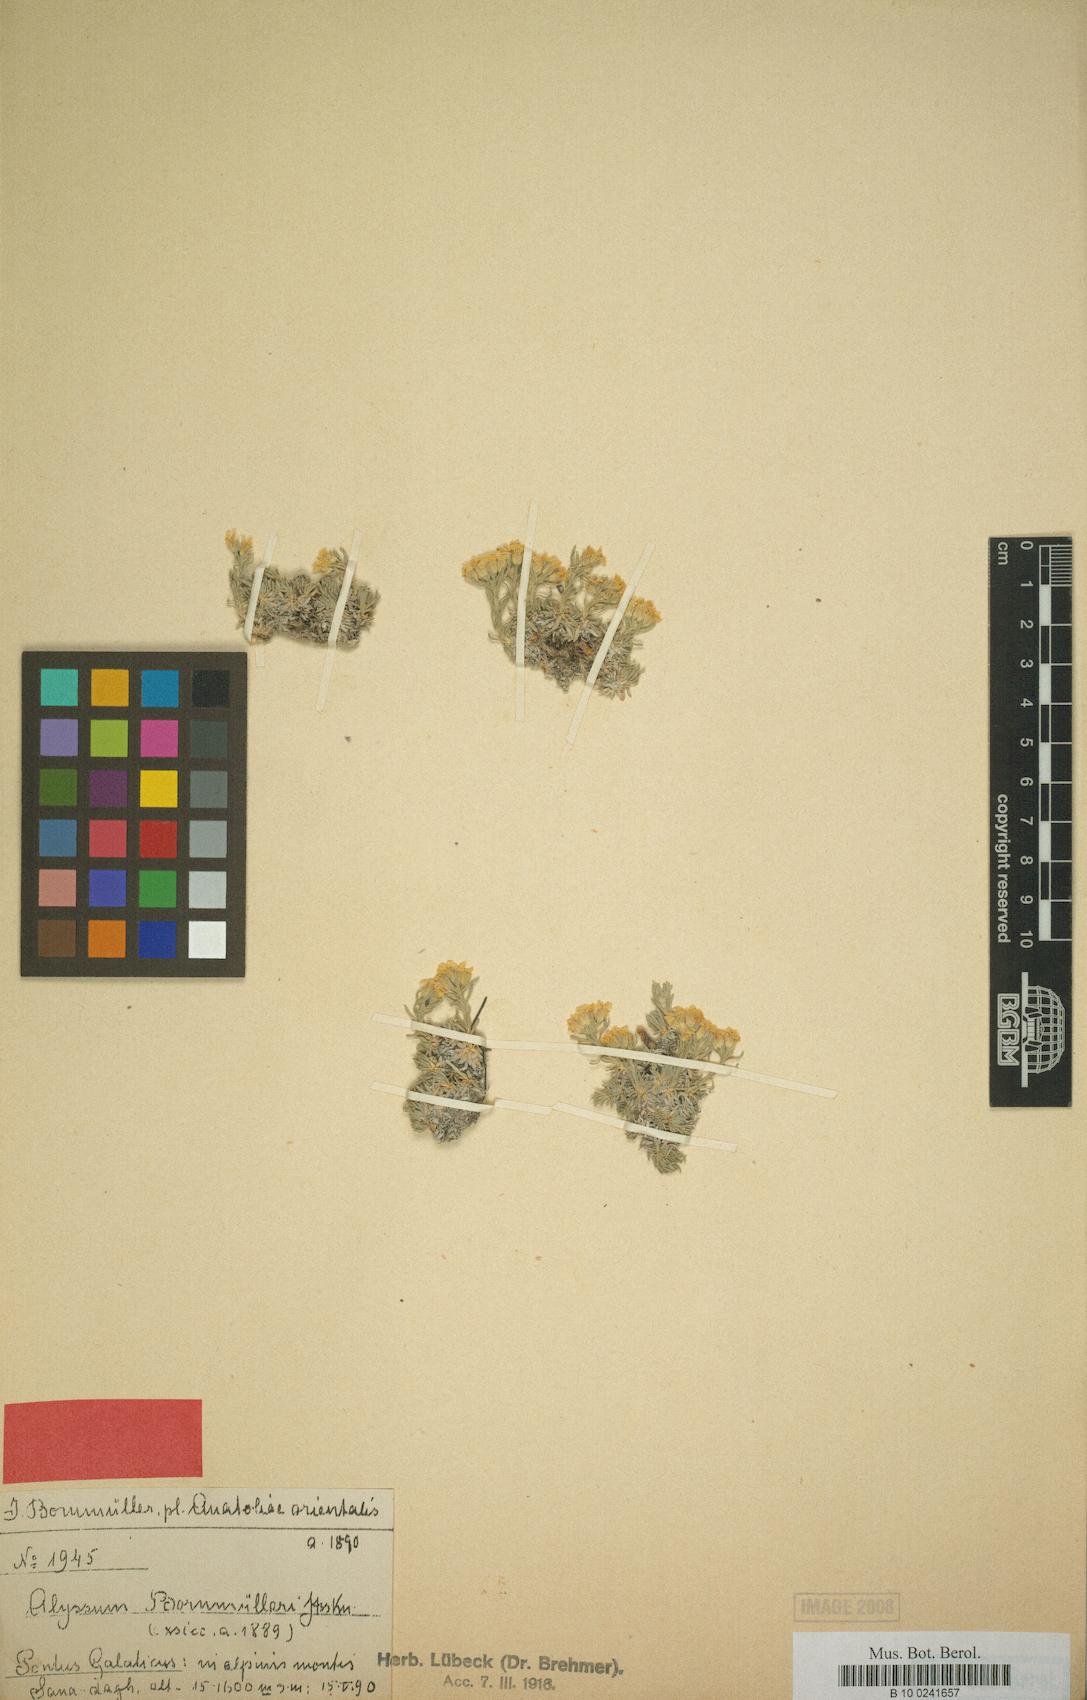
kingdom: Plantae
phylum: Tracheophyta
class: Magnoliopsida
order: Brassicales
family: Brassicaceae
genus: Alyssum
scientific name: Alyssum bornmuelleri
